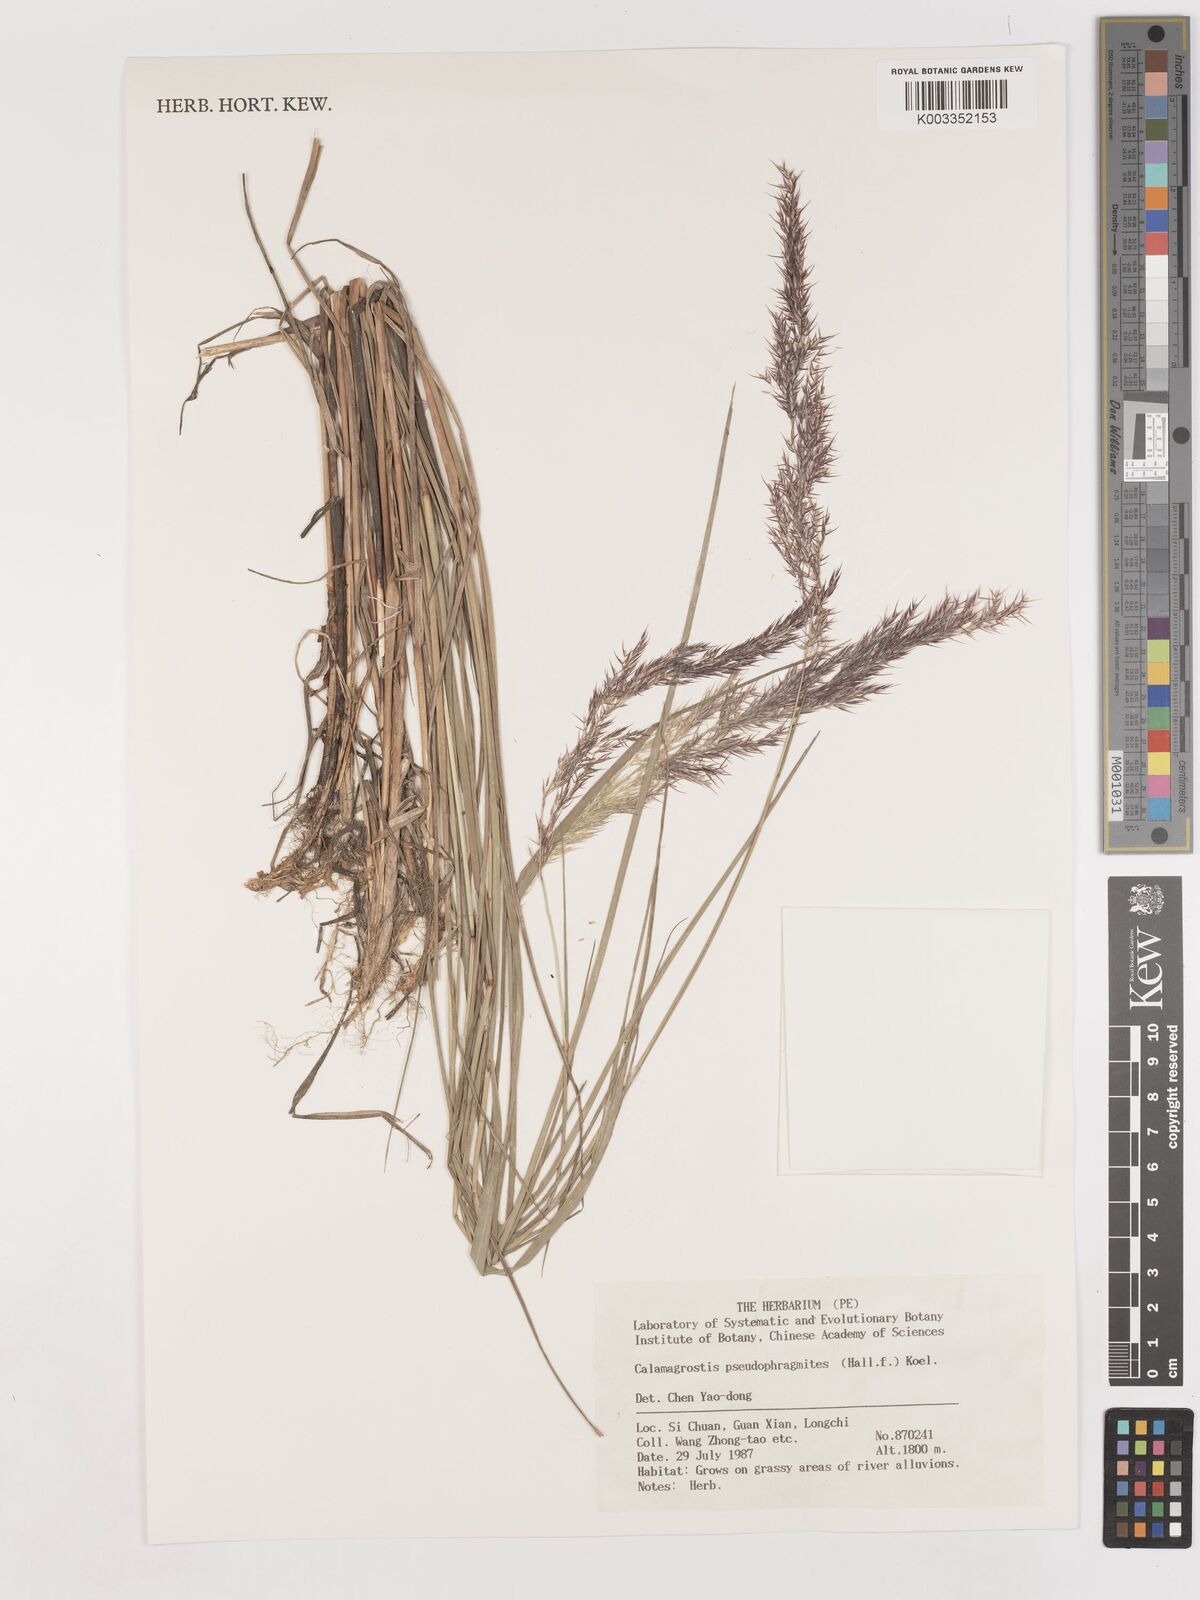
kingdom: Plantae
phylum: Tracheophyta
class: Liliopsida
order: Poales
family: Poaceae
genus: Calamagrostis
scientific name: Calamagrostis pseudophragmites
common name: Coastal small-reed
